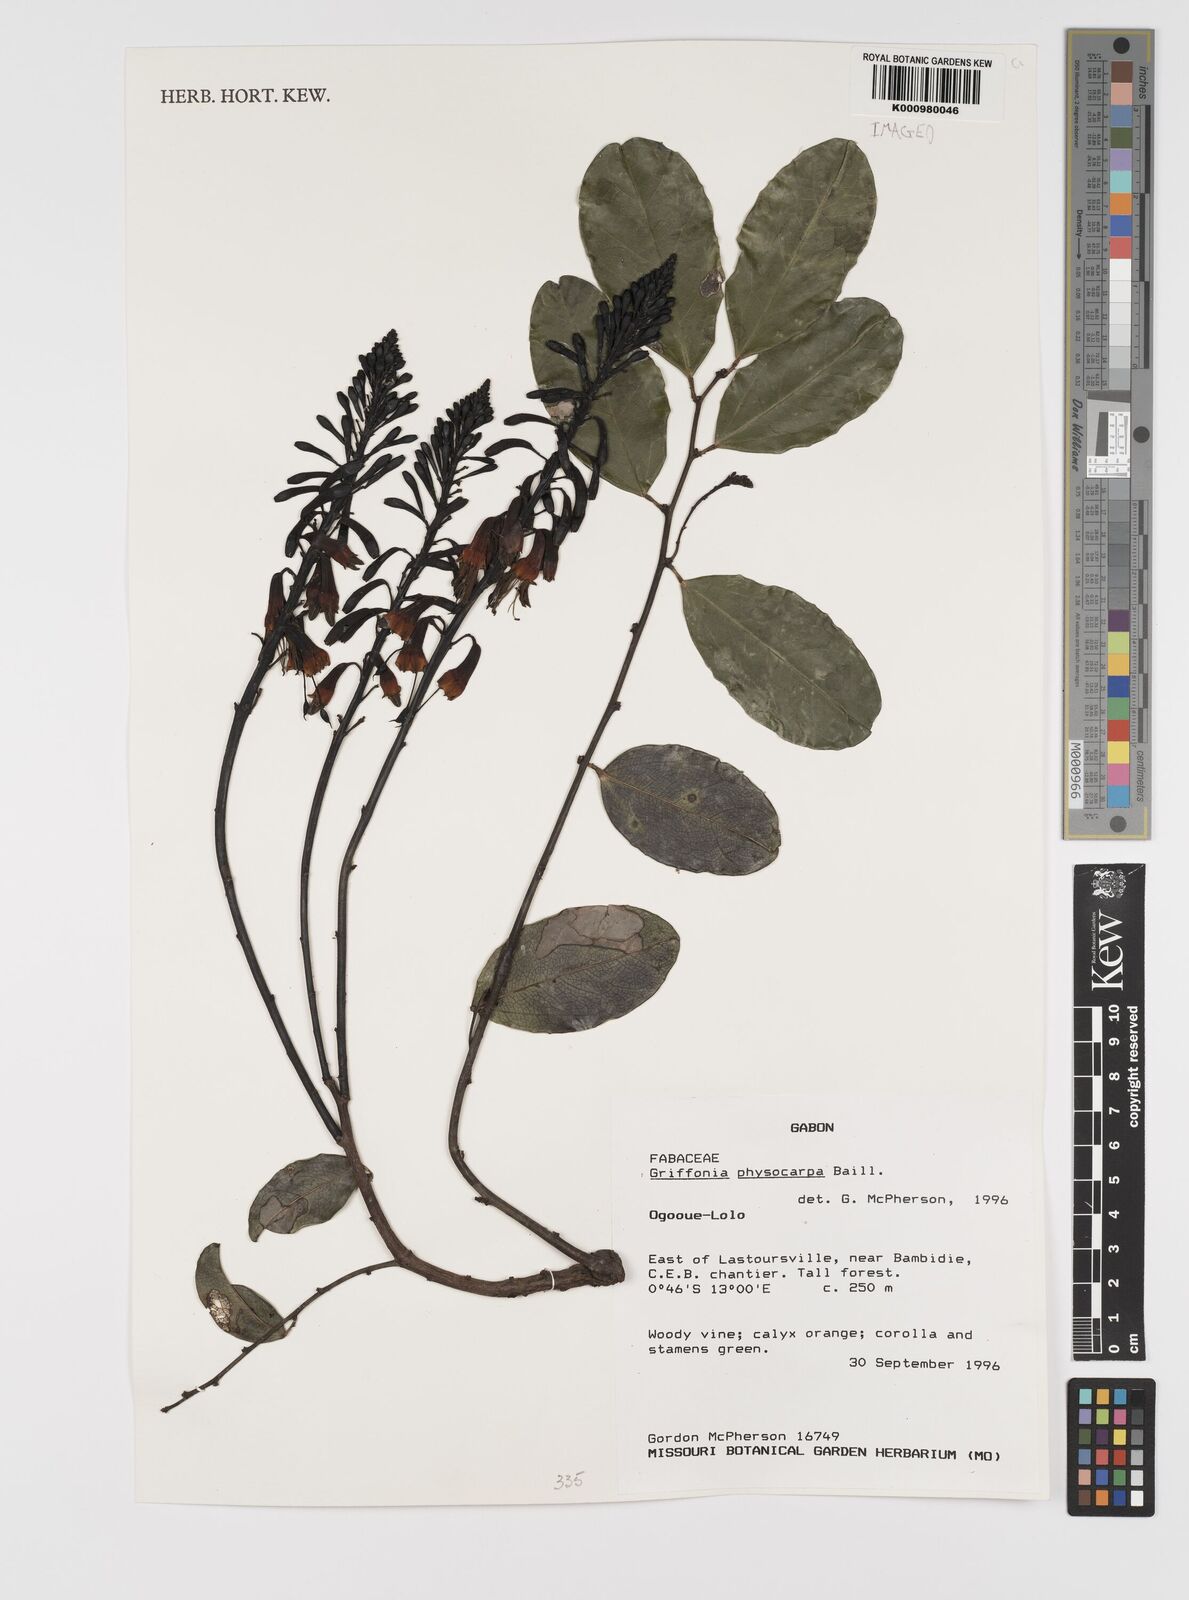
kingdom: Plantae
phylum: Tracheophyta
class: Magnoliopsida
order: Fabales
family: Fabaceae
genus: Griffonia
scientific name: Griffonia physocarpa
